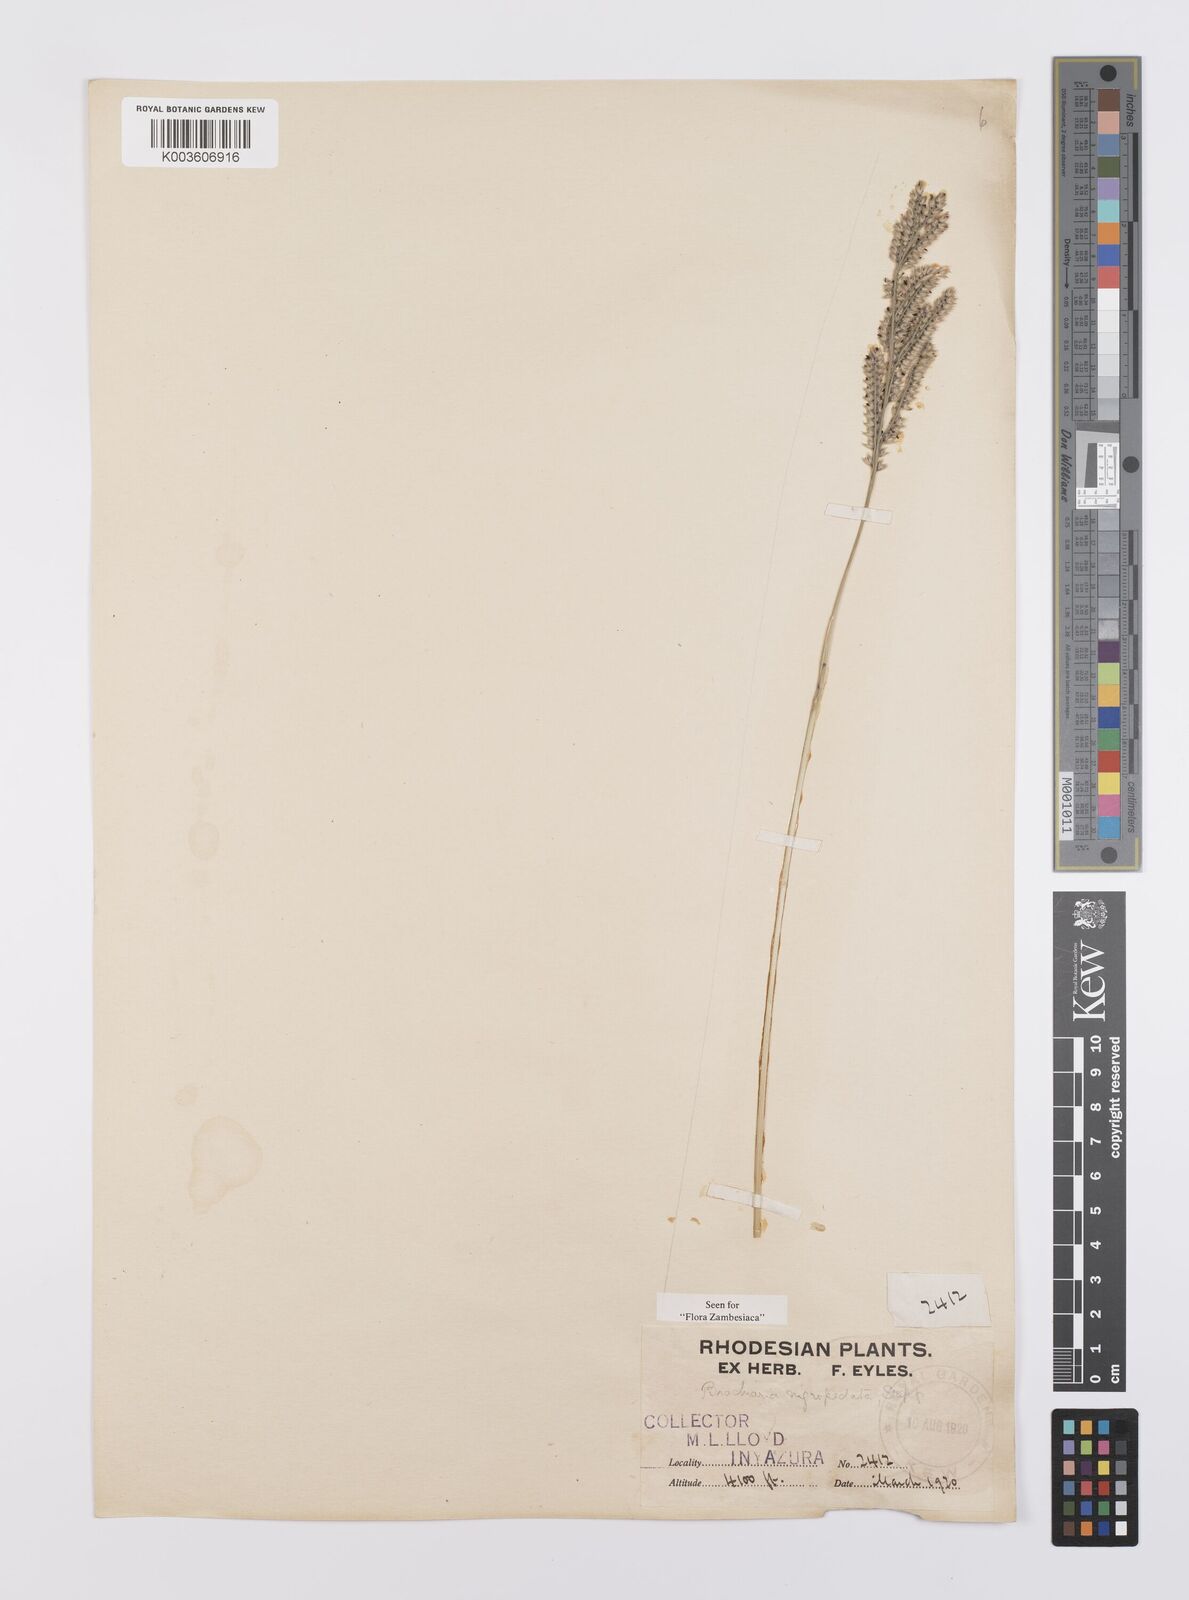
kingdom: Plantae
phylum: Tracheophyta
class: Liliopsida
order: Poales
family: Poaceae
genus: Urochloa
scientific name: Urochloa nigropedata
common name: Spotted signal grass
